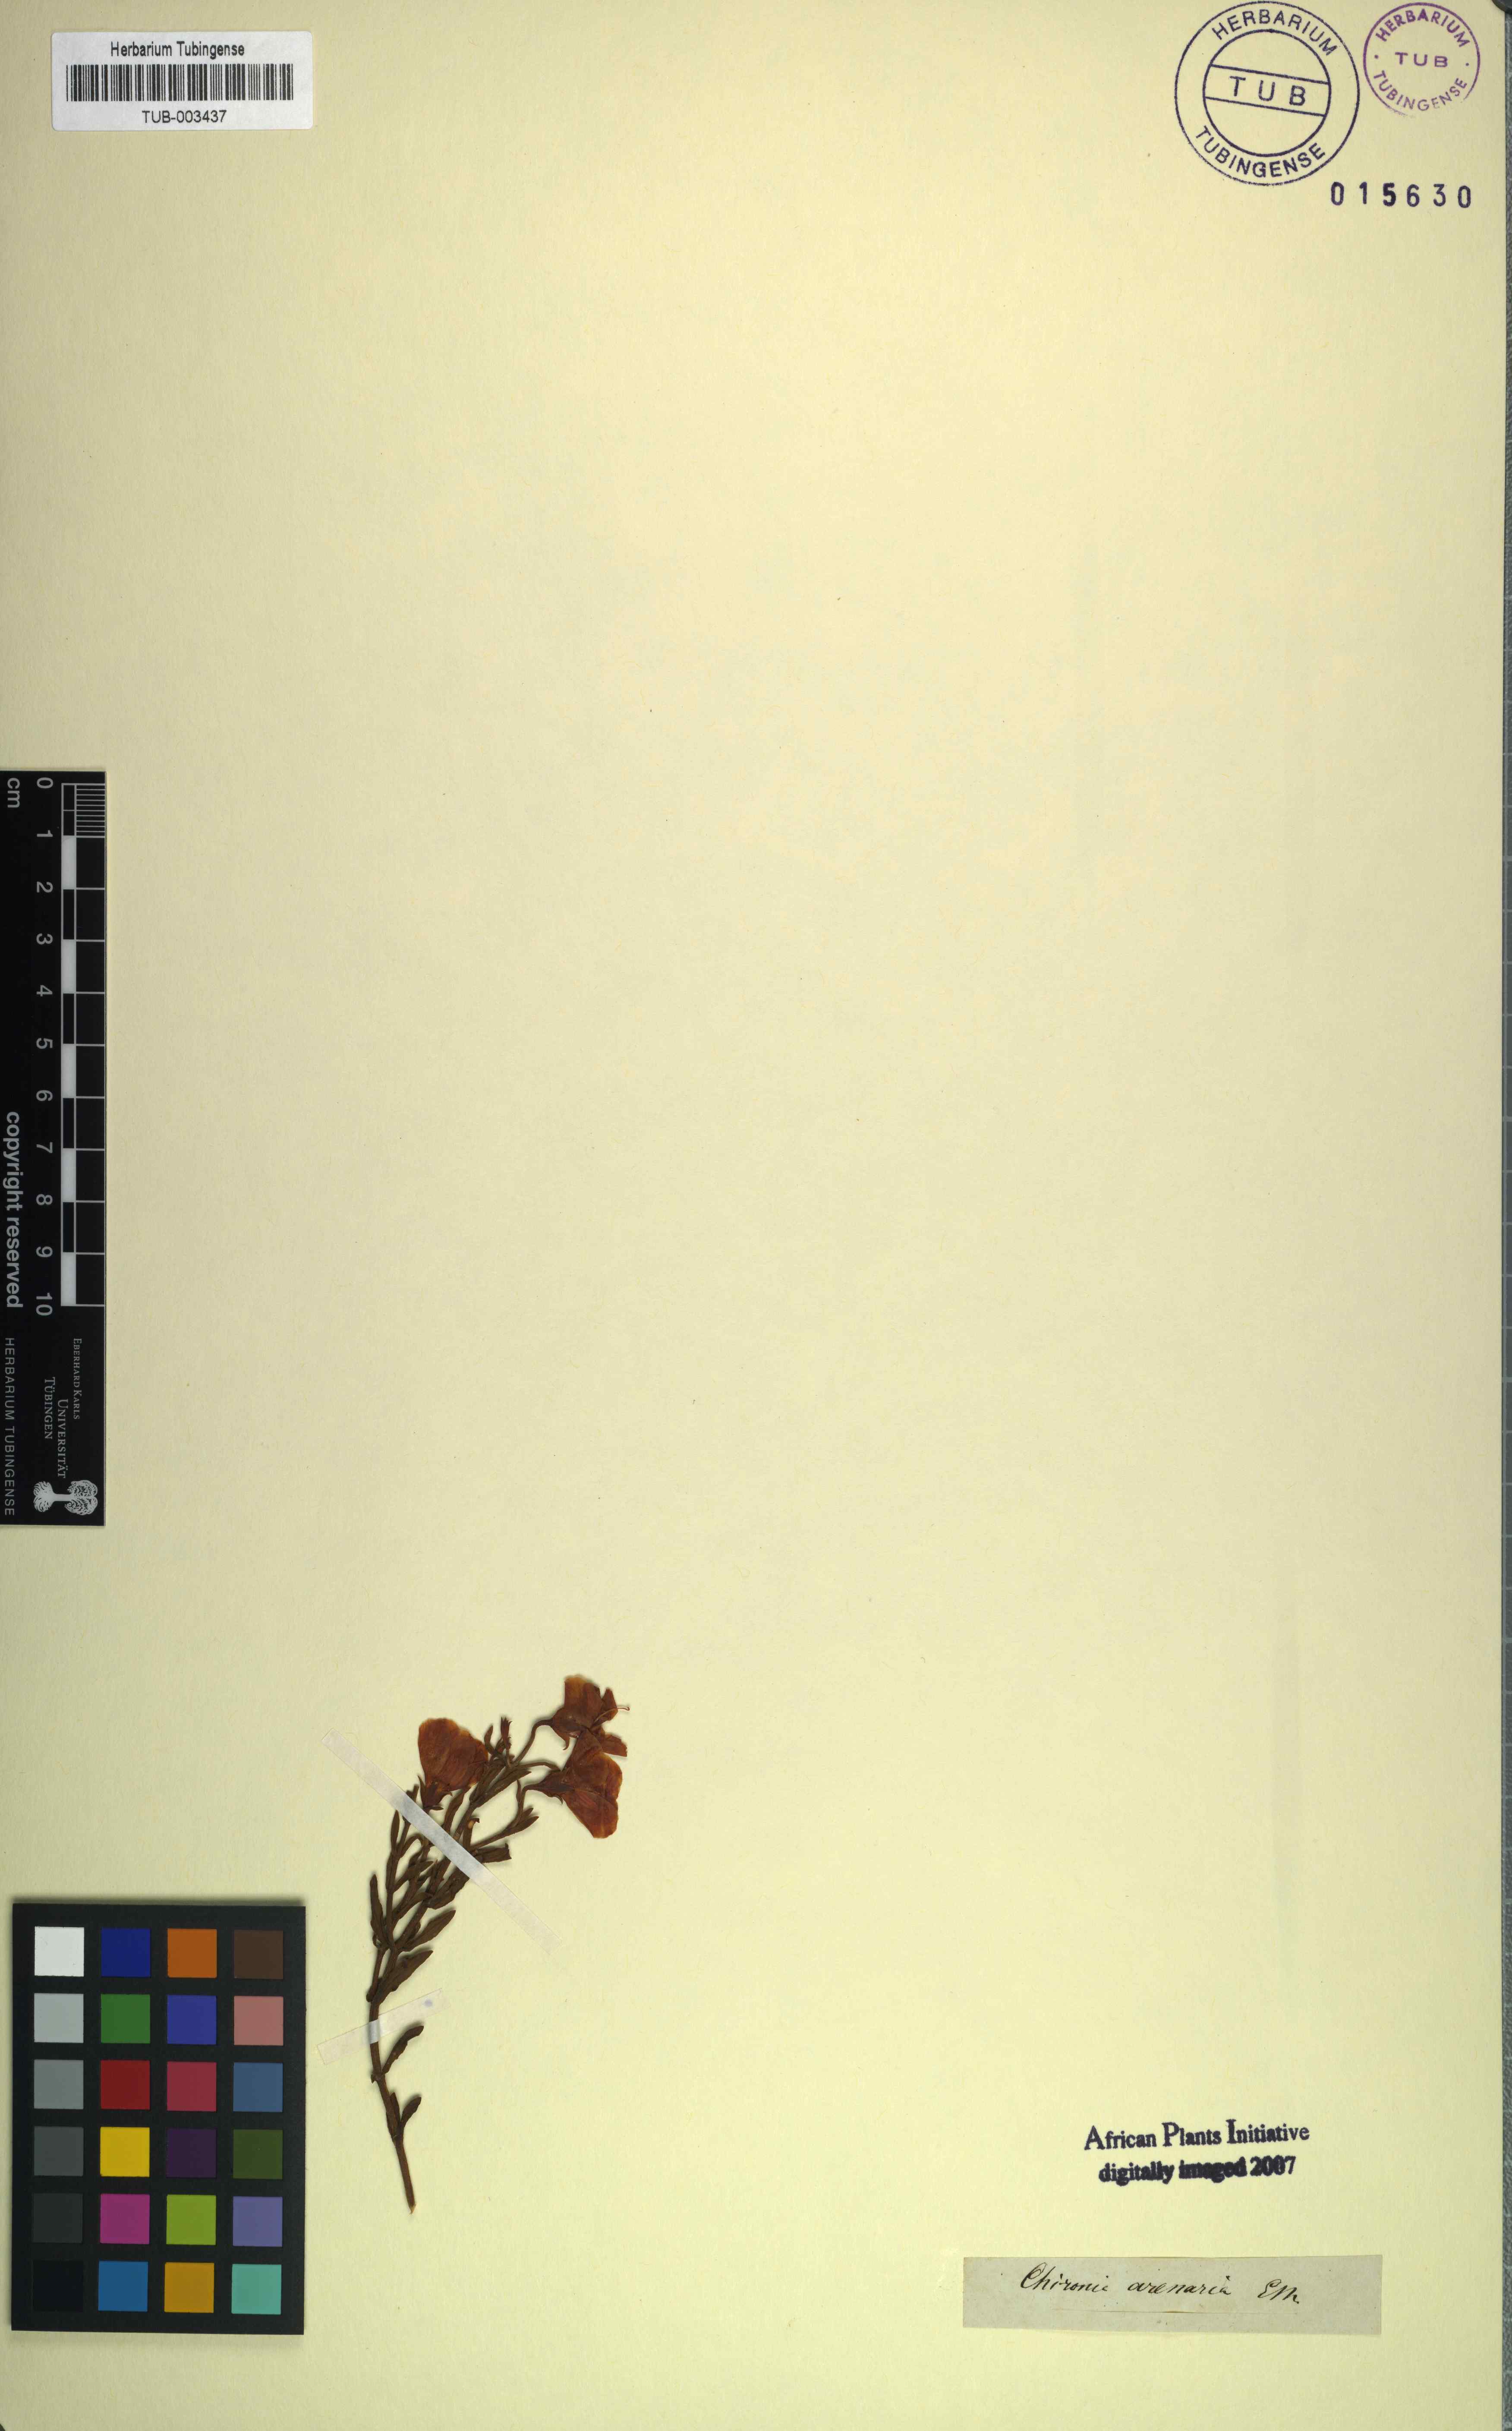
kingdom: Plantae
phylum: Tracheophyta
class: Magnoliopsida
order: Gentianales
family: Gentianaceae
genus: Chironia
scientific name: Chironia arenaria
